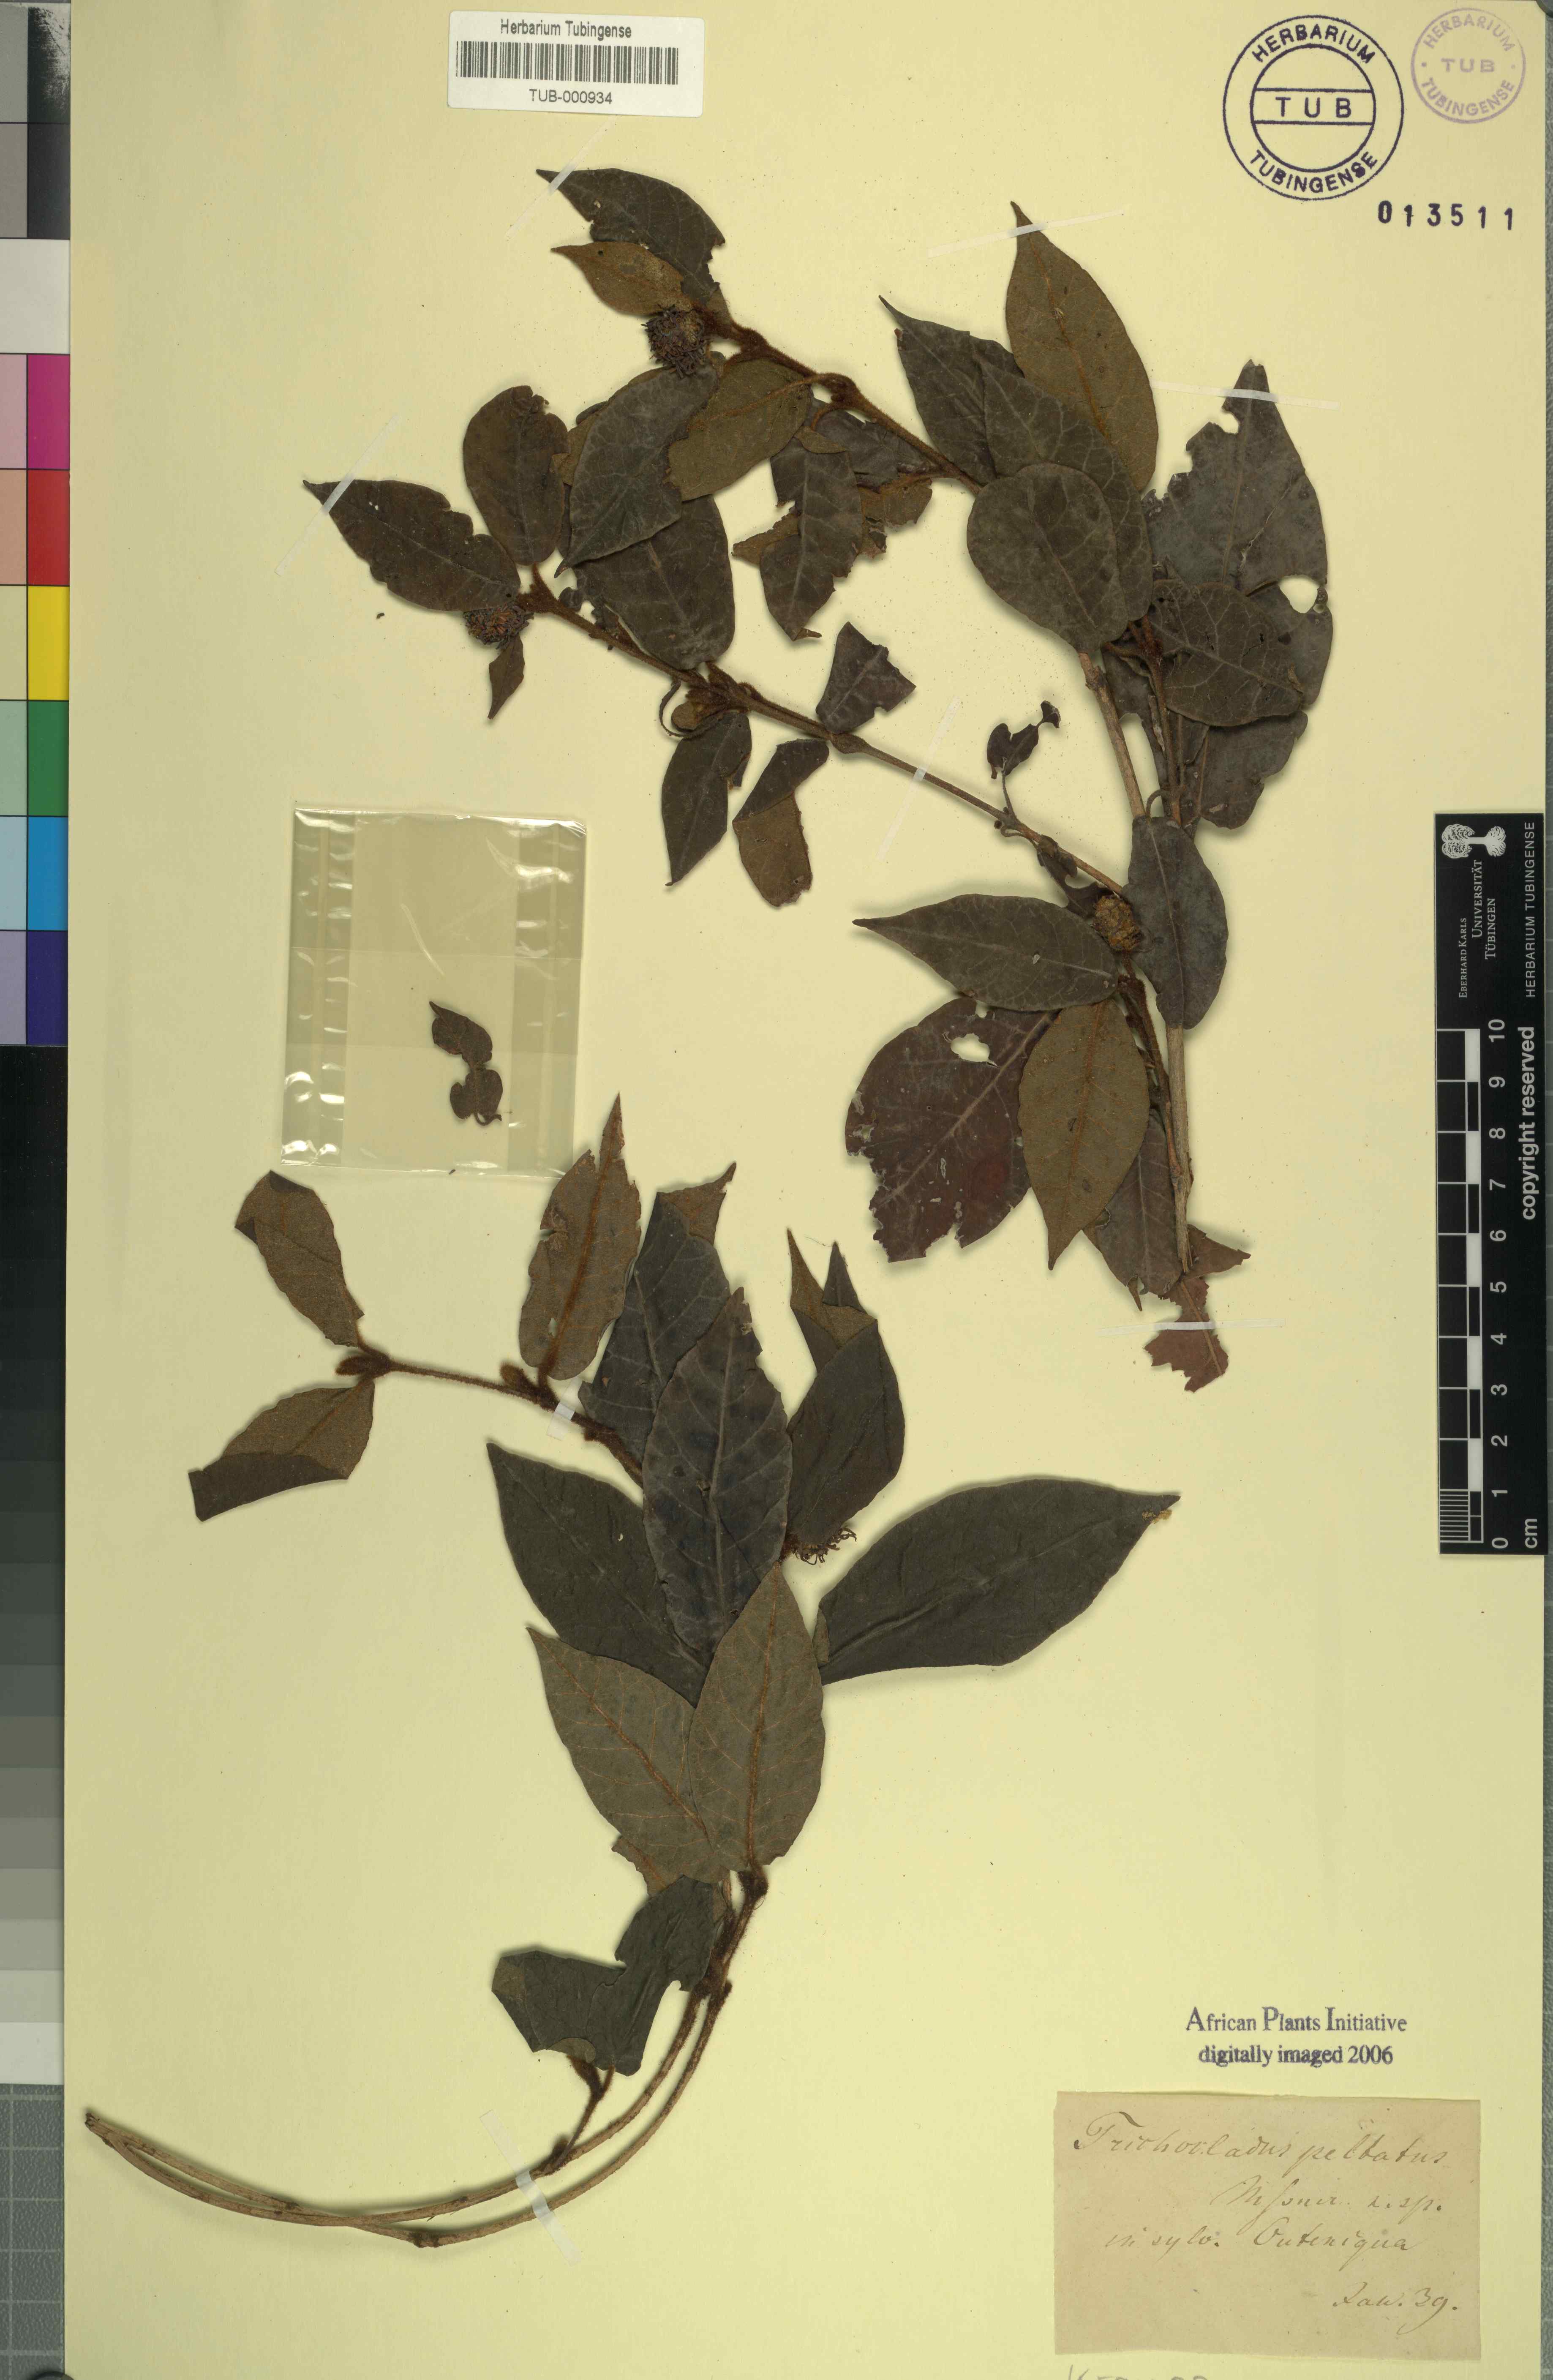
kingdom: Plantae
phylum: Tracheophyta
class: Magnoliopsida
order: Saxifragales
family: Hamamelidaceae
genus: Trichocladus
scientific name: Trichocladus crinitus
